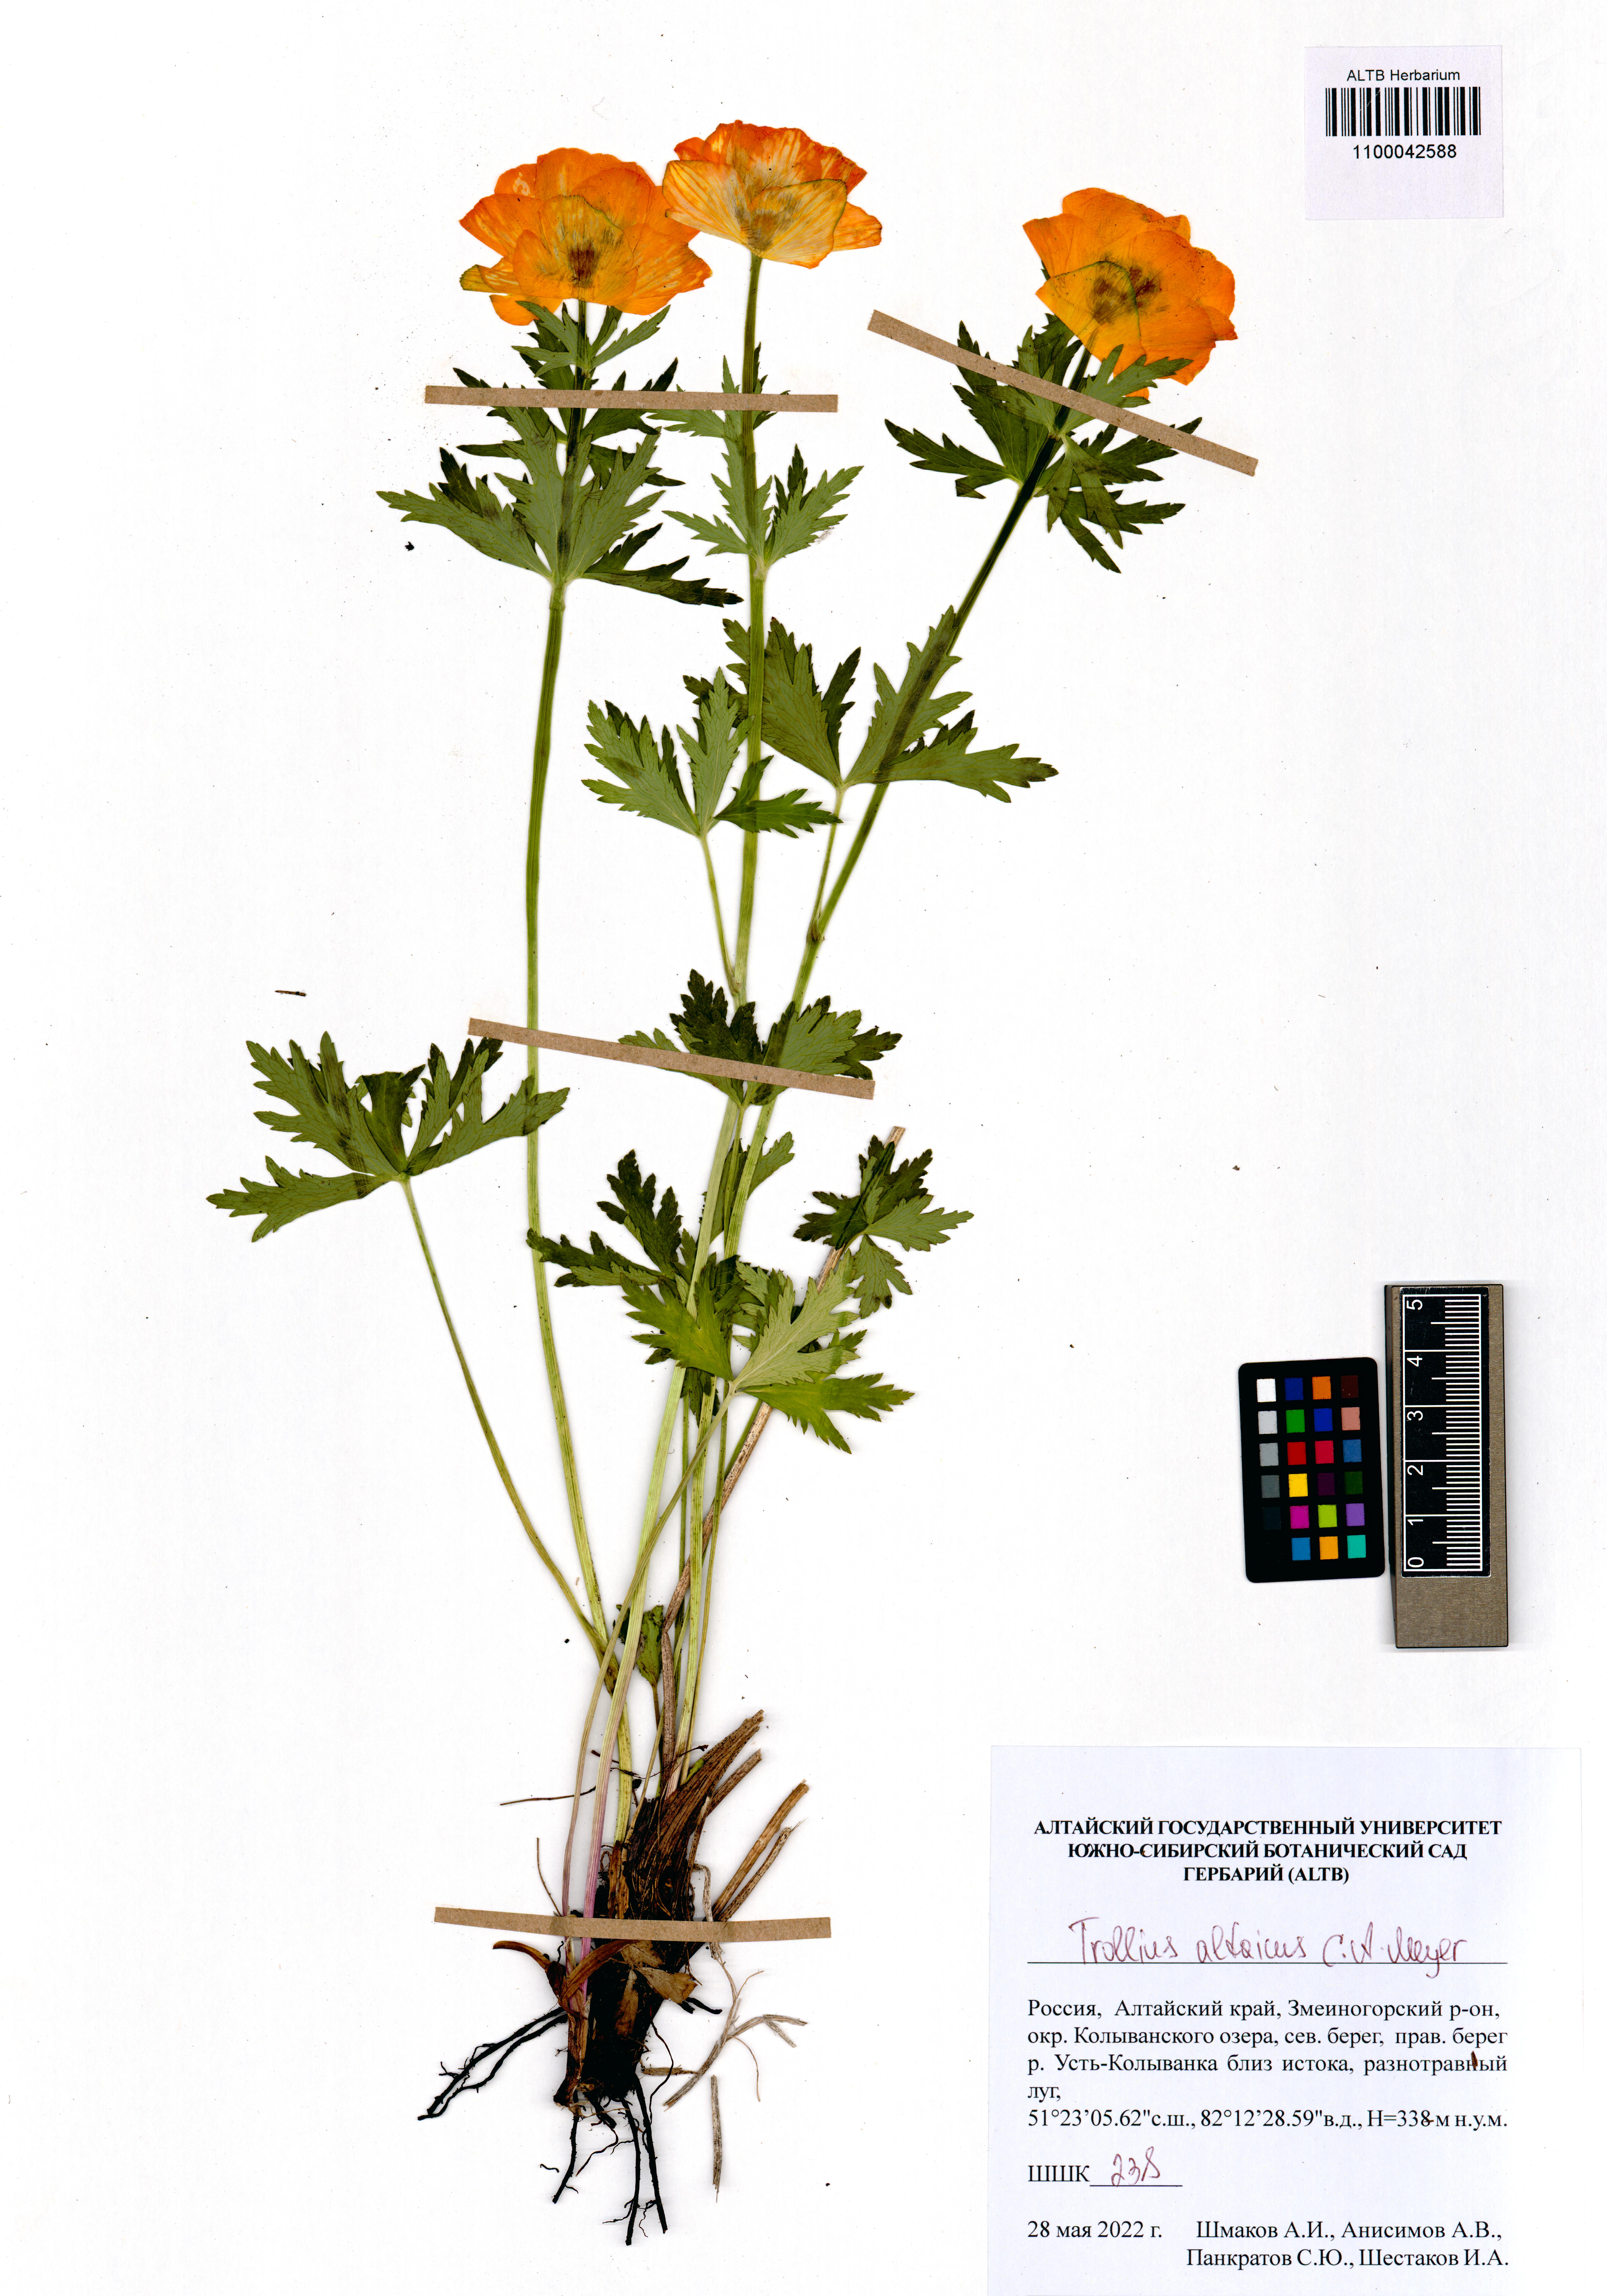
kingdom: Plantae
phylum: Tracheophyta
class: Magnoliopsida
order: Ranunculales
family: Ranunculaceae
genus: Trollius
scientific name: Trollius altaicus
